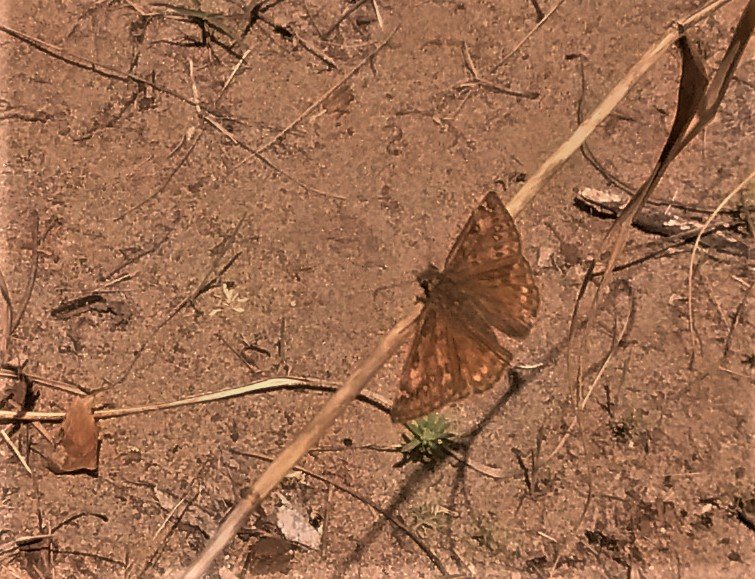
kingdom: Animalia
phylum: Arthropoda
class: Insecta
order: Lepidoptera
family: Hesperiidae
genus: Gesta
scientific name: Gesta
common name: Juvenal's Duskywing
